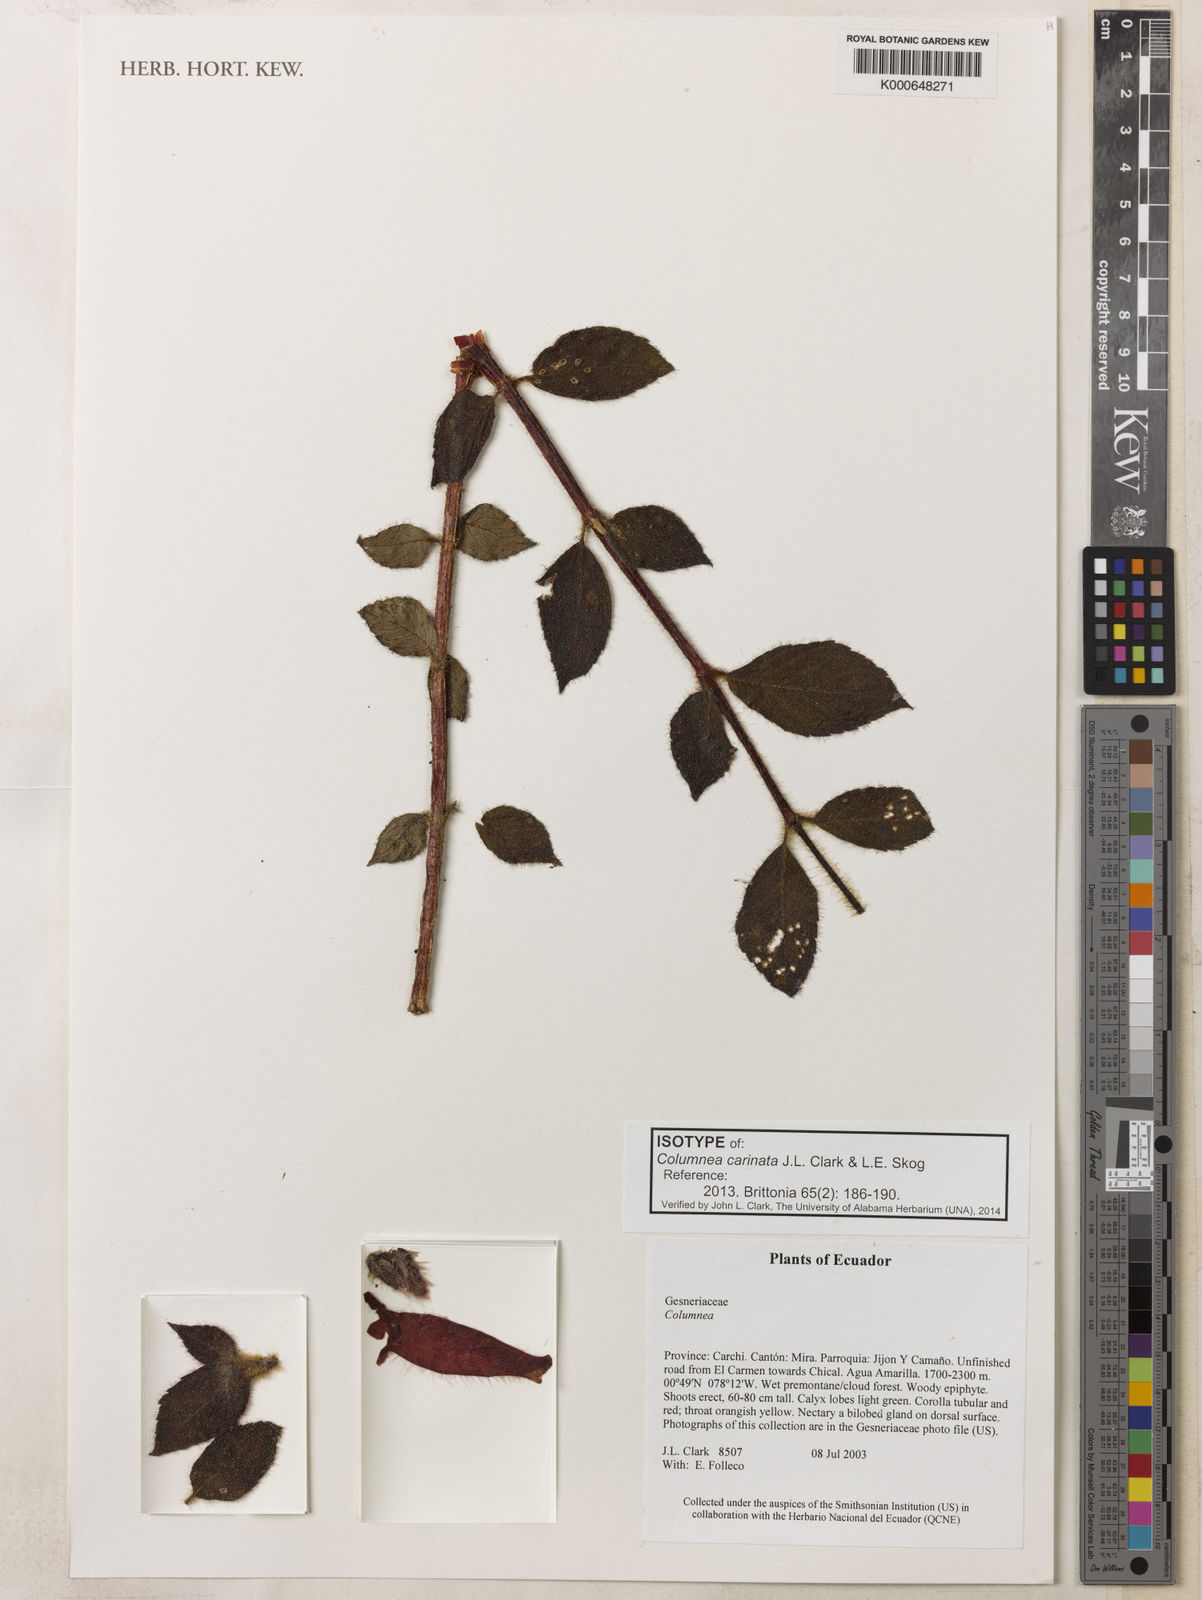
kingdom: Plantae
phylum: Tracheophyta
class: Magnoliopsida
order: Lamiales
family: Gesneriaceae
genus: Columnea
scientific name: Columnea carinata
